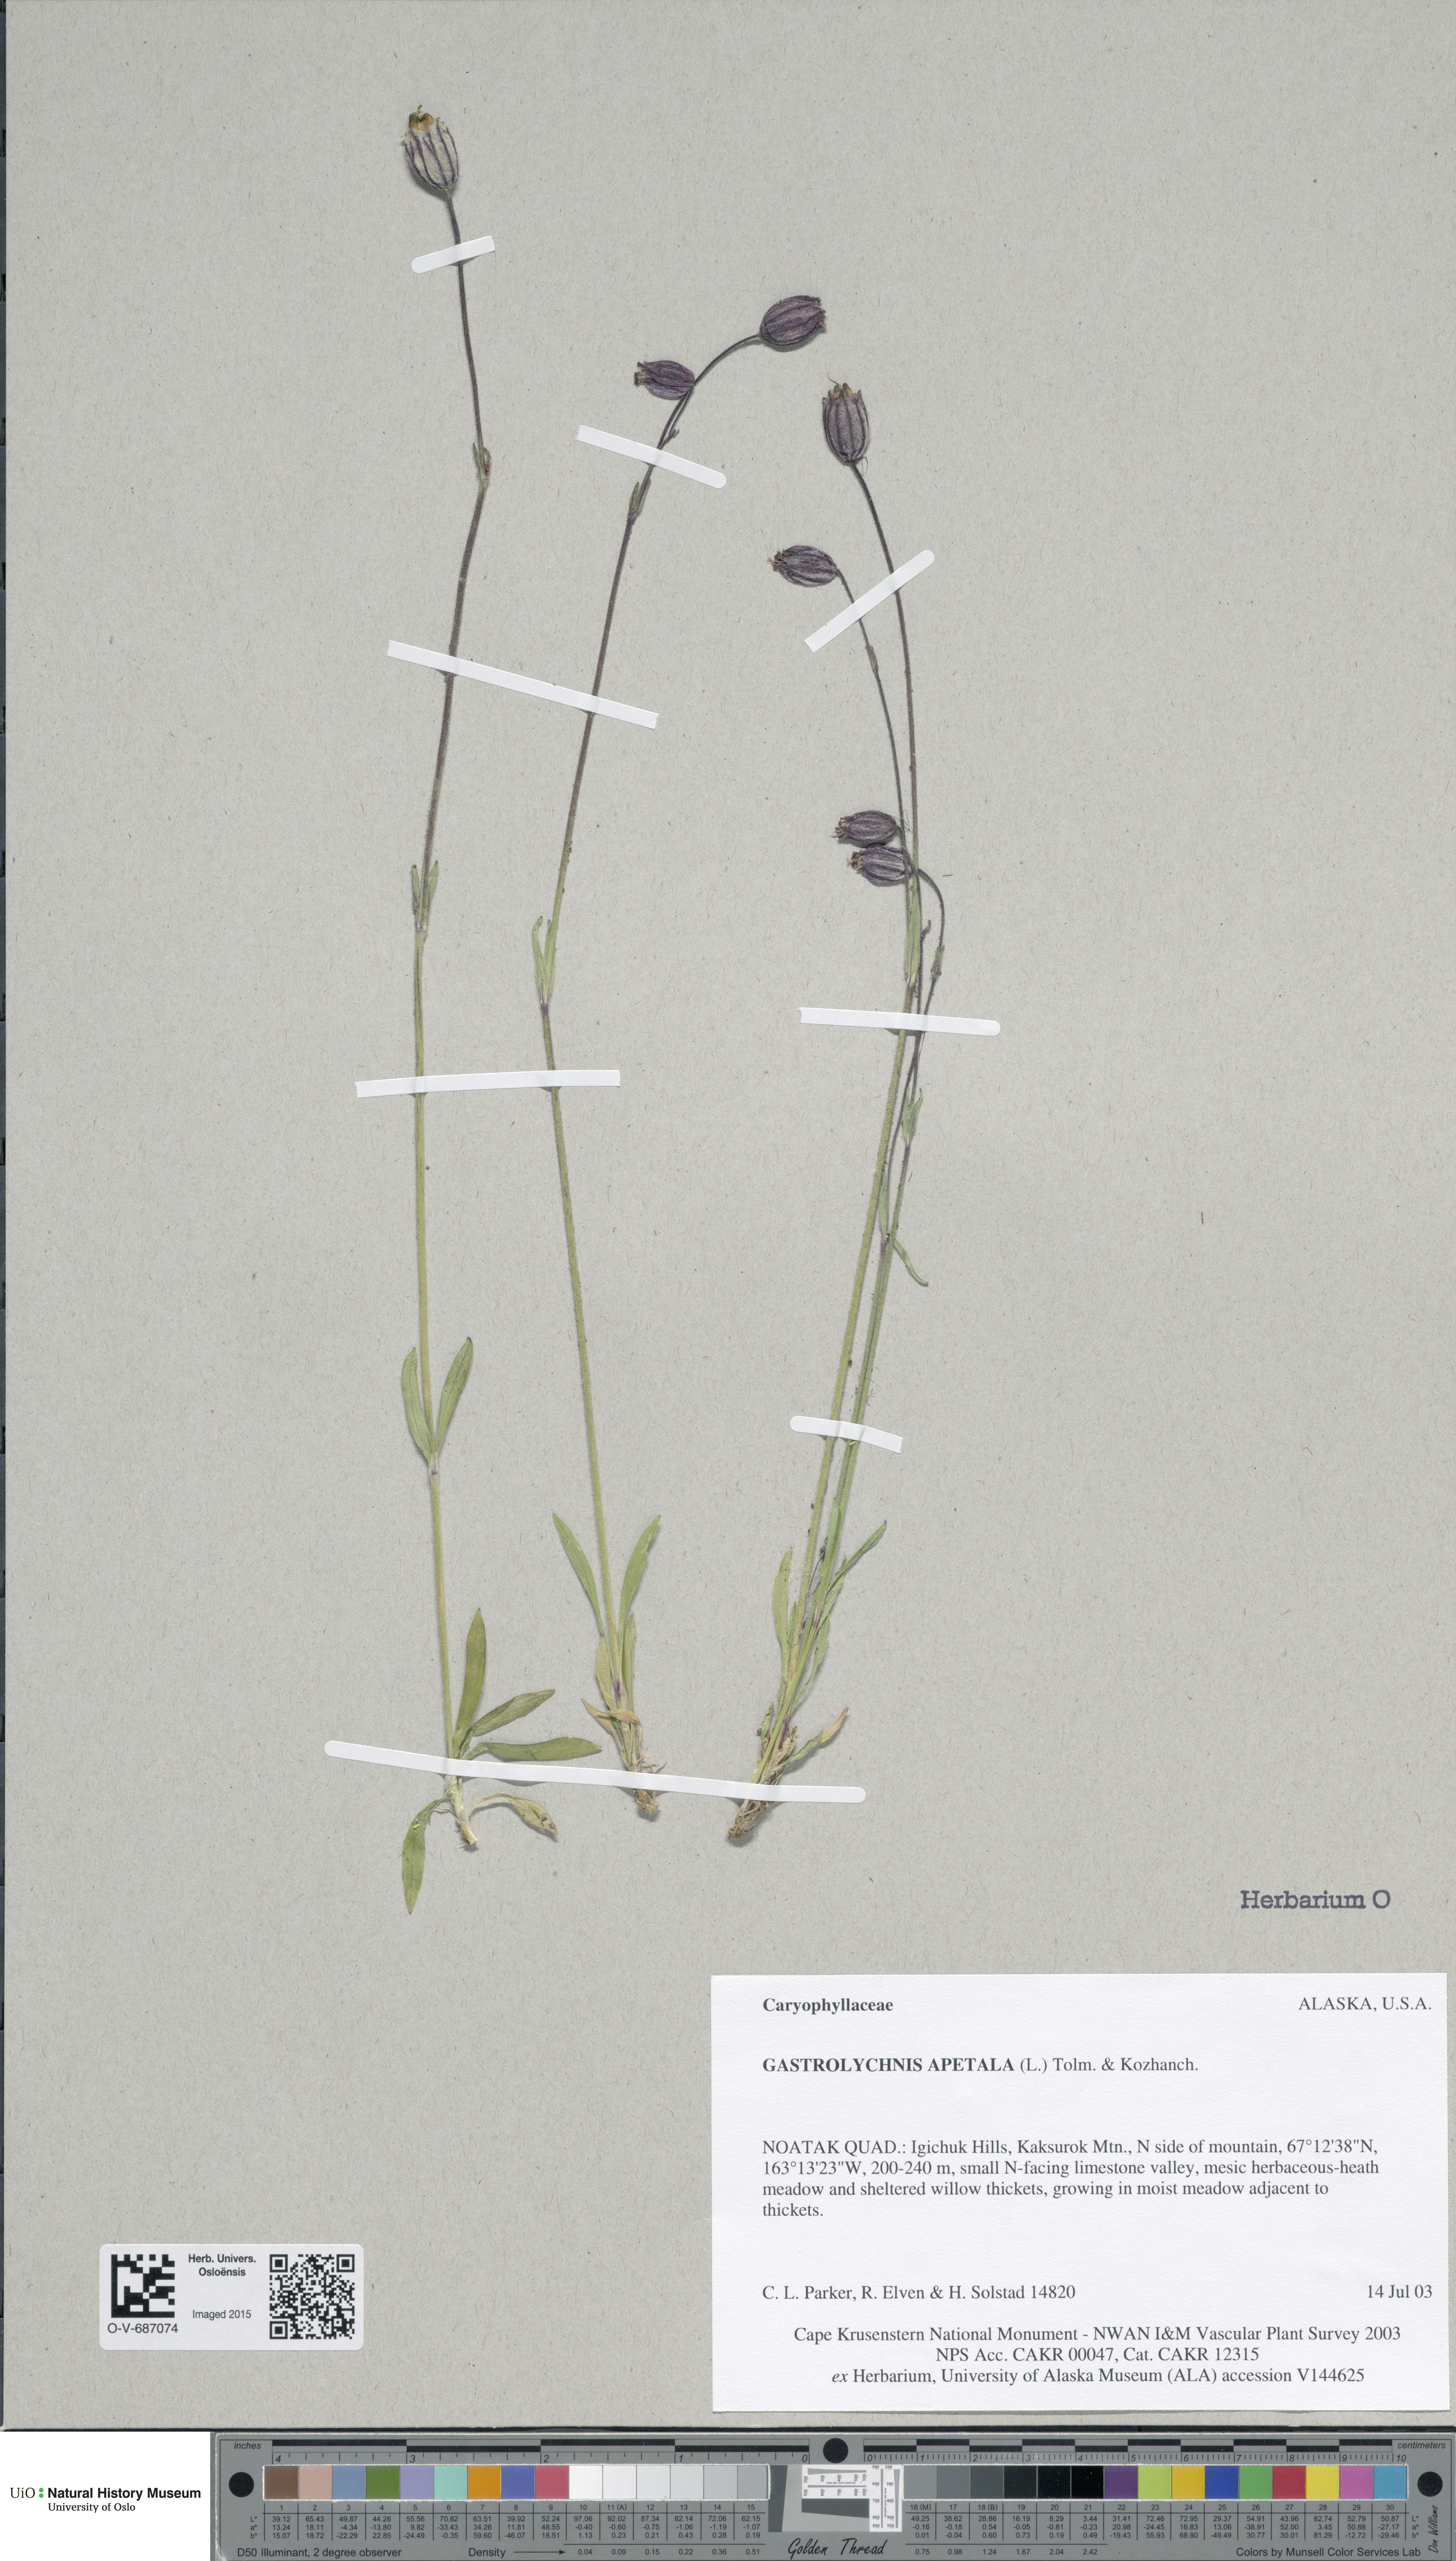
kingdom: Plantae
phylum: Tracheophyta
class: Magnoliopsida
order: Caryophyllales
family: Caryophyllaceae
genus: Silene
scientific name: Silene wahlbergella
